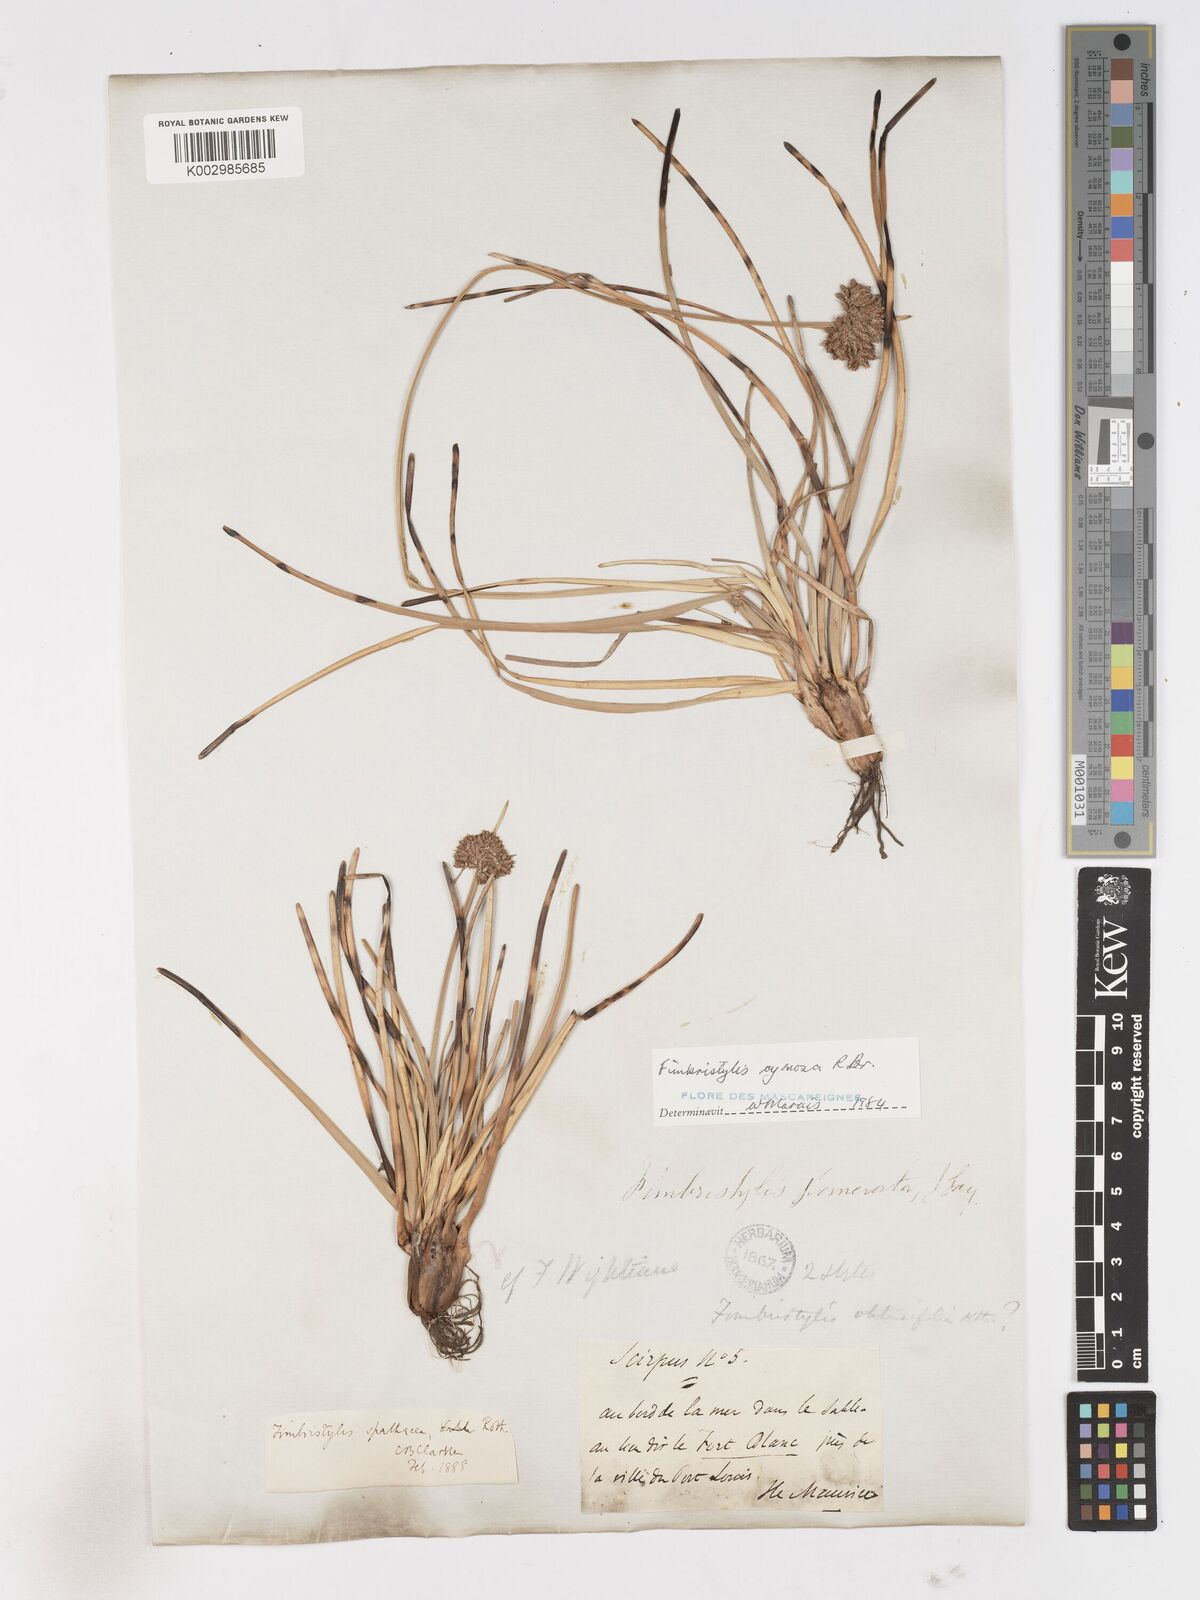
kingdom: Plantae
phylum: Tracheophyta
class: Liliopsida
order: Poales
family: Cyperaceae
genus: Fimbristylis
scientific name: Fimbristylis cymosa
